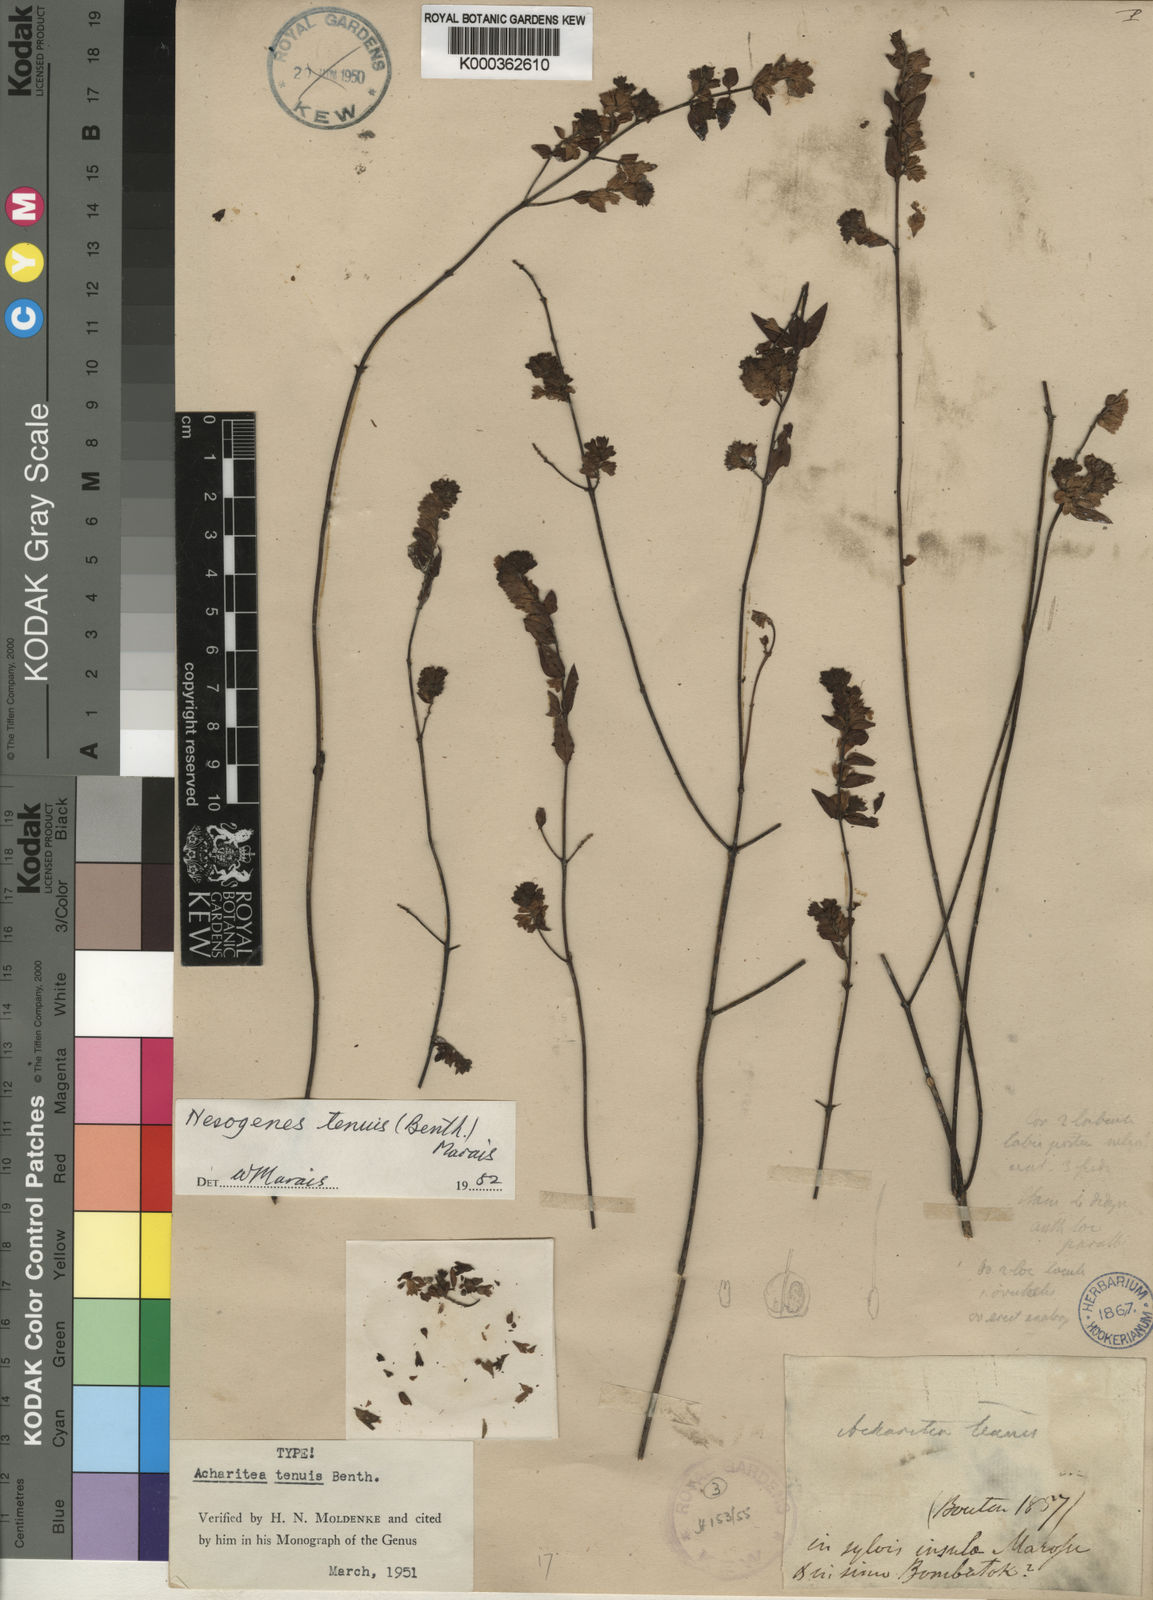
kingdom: Plantae
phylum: Tracheophyta
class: Magnoliopsida
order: Lamiales
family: Orobanchaceae
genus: Nesogenes
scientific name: Nesogenes tenuis
